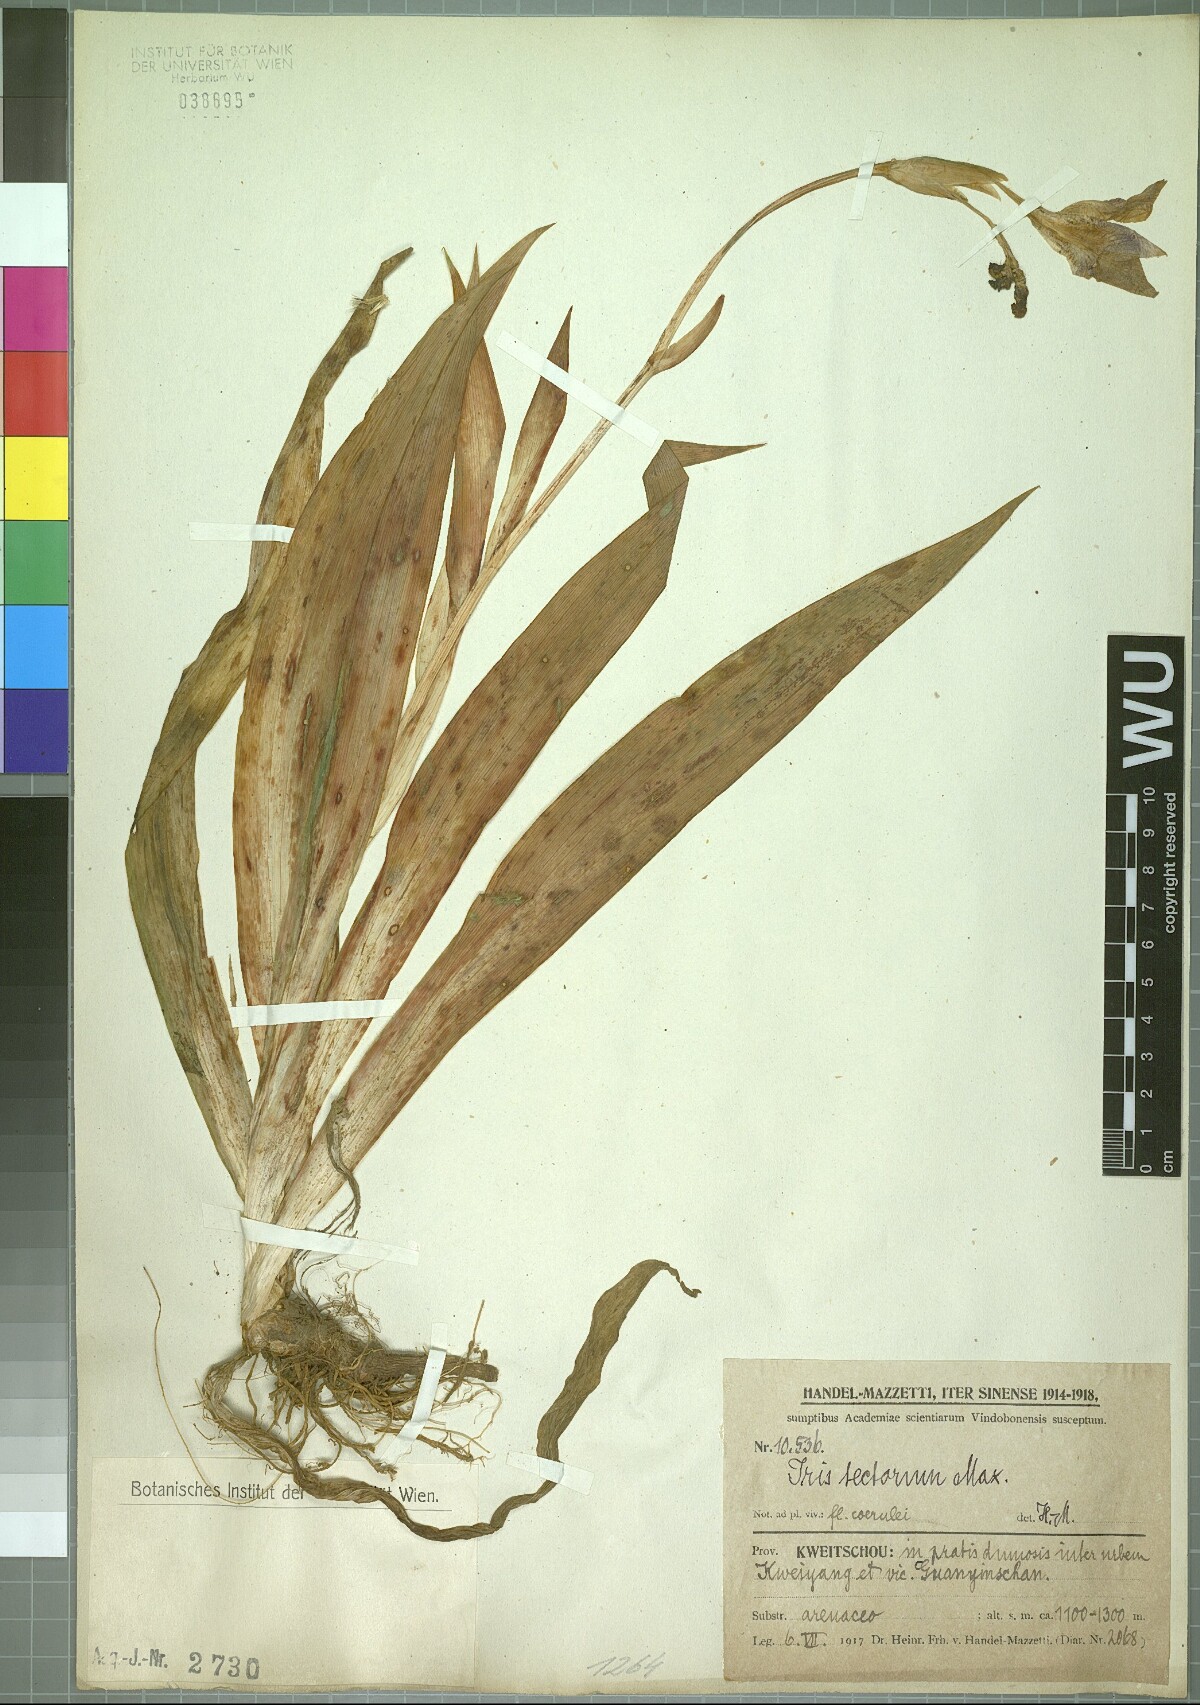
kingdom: Plantae
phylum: Tracheophyta
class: Liliopsida
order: Asparagales
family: Iridaceae
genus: Iris
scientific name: Iris tectorum
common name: Wall iris
